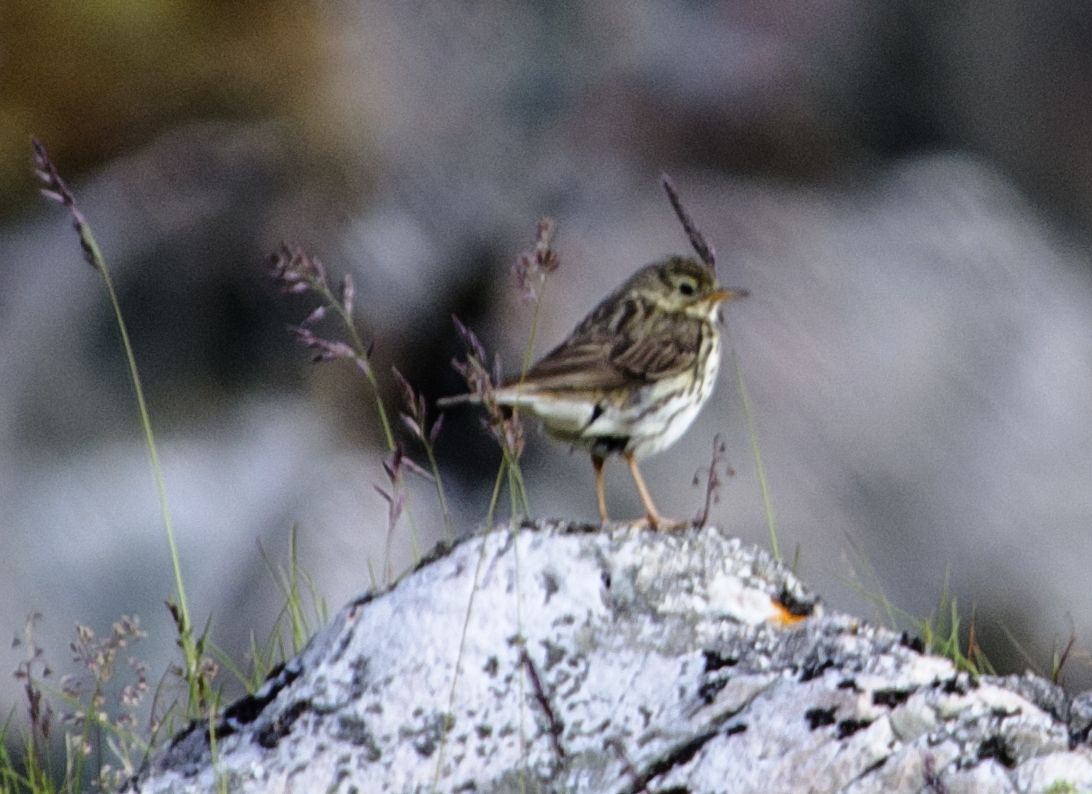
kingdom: Animalia
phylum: Chordata
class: Aves
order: Passeriformes
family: Motacillidae
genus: Anthus
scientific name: Anthus pratensis
